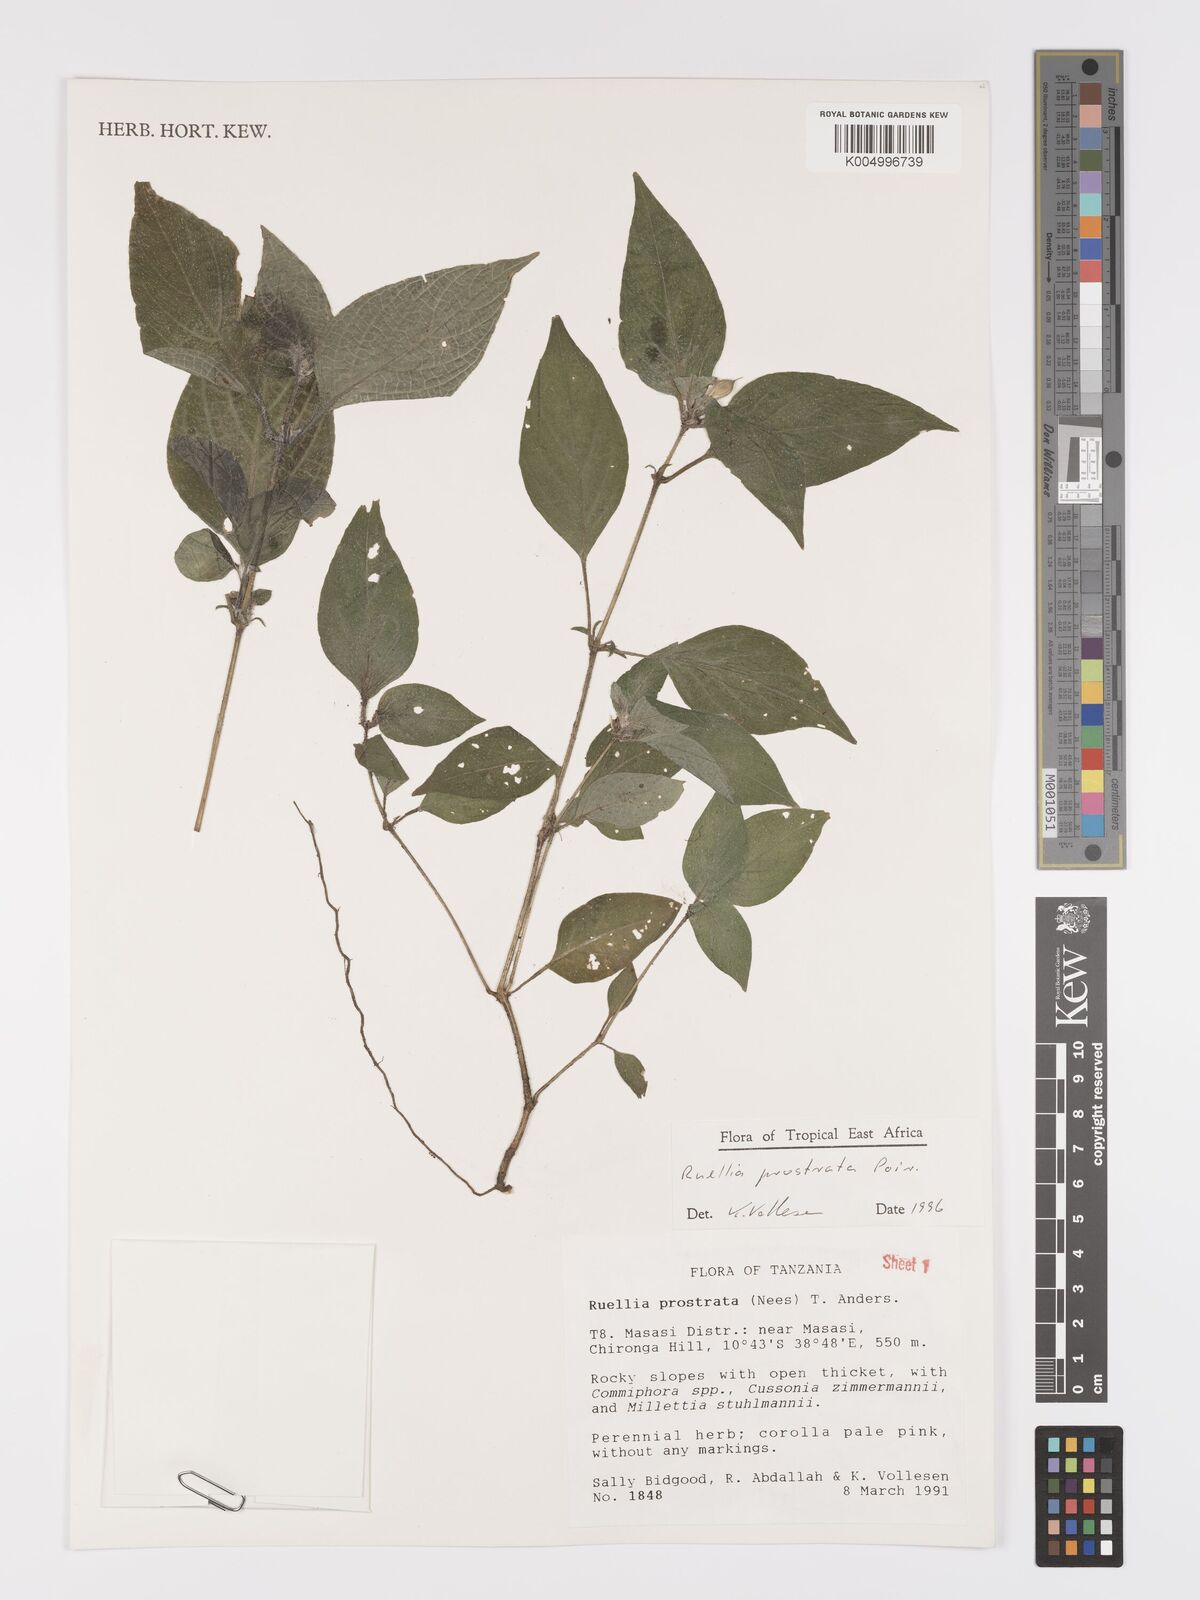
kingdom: Plantae
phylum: Tracheophyta
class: Magnoliopsida
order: Lamiales
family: Acanthaceae
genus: Ruellia
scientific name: Ruellia
